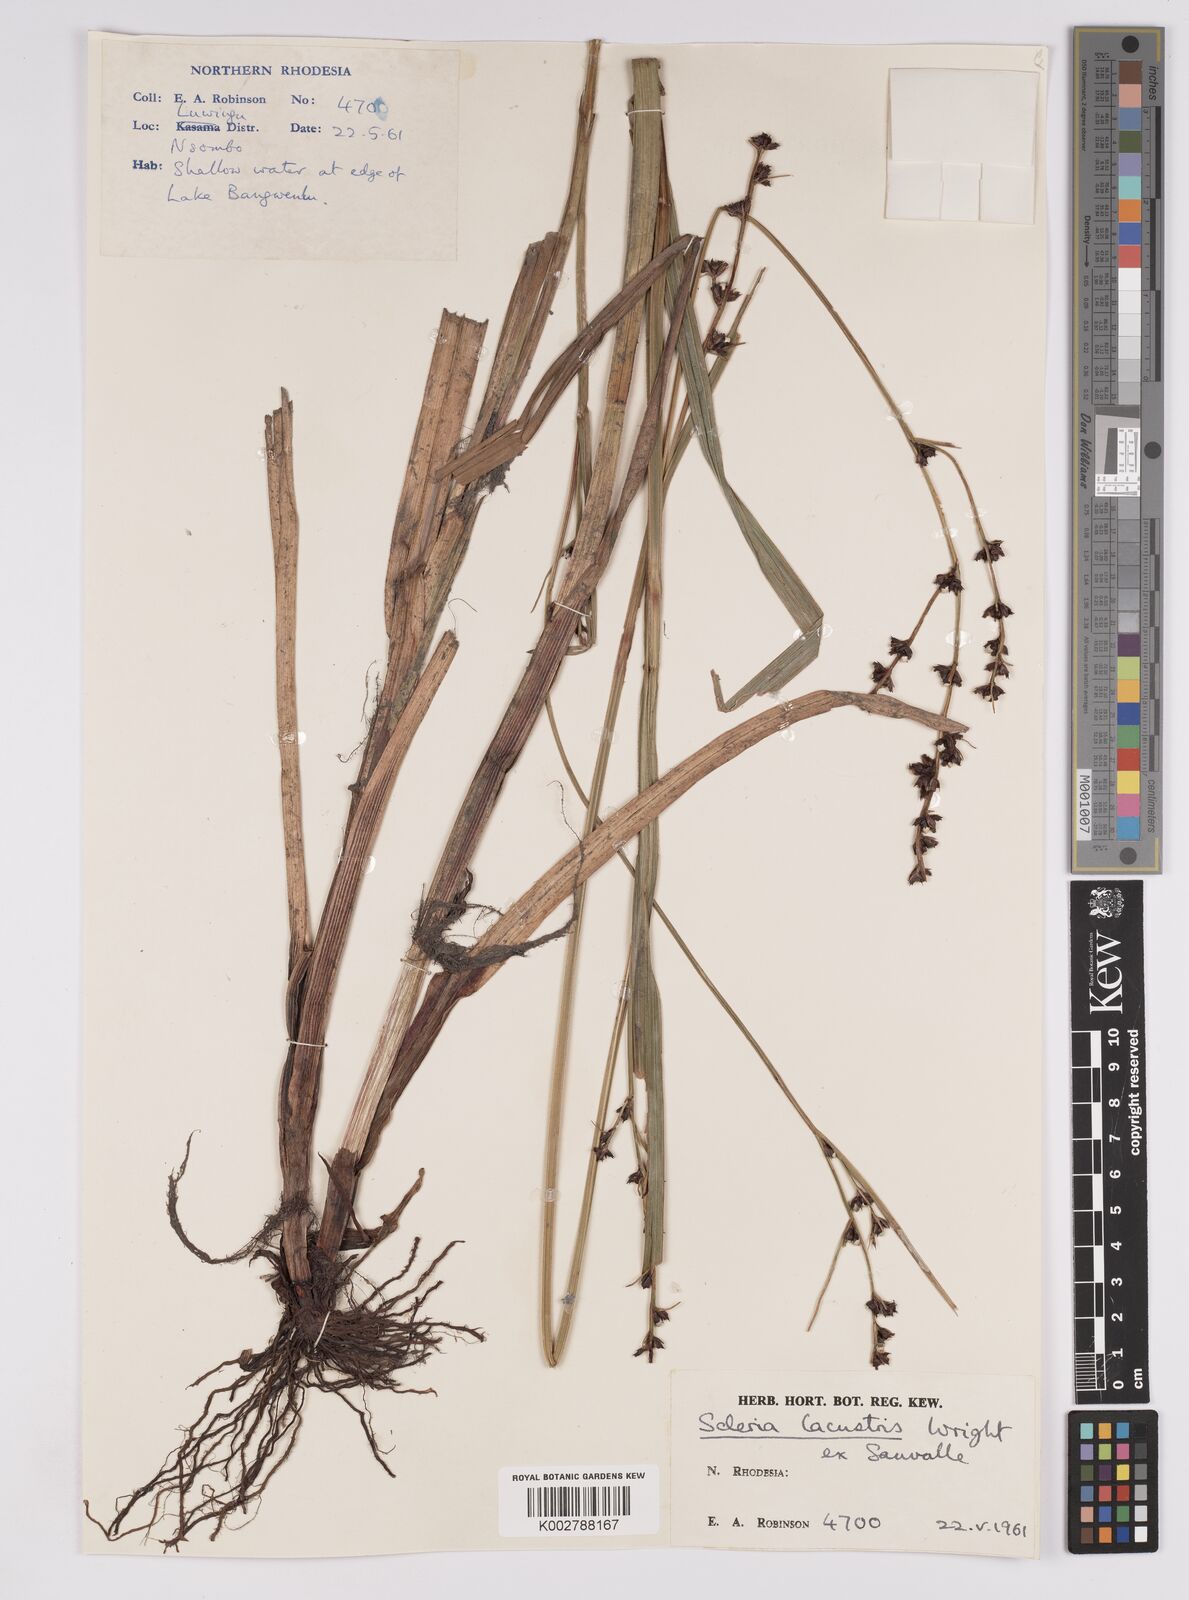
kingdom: Plantae
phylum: Tracheophyta
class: Liliopsida
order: Poales
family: Cyperaceae
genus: Scleria
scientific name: Scleria lacustris
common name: Lakeshore nutrush
